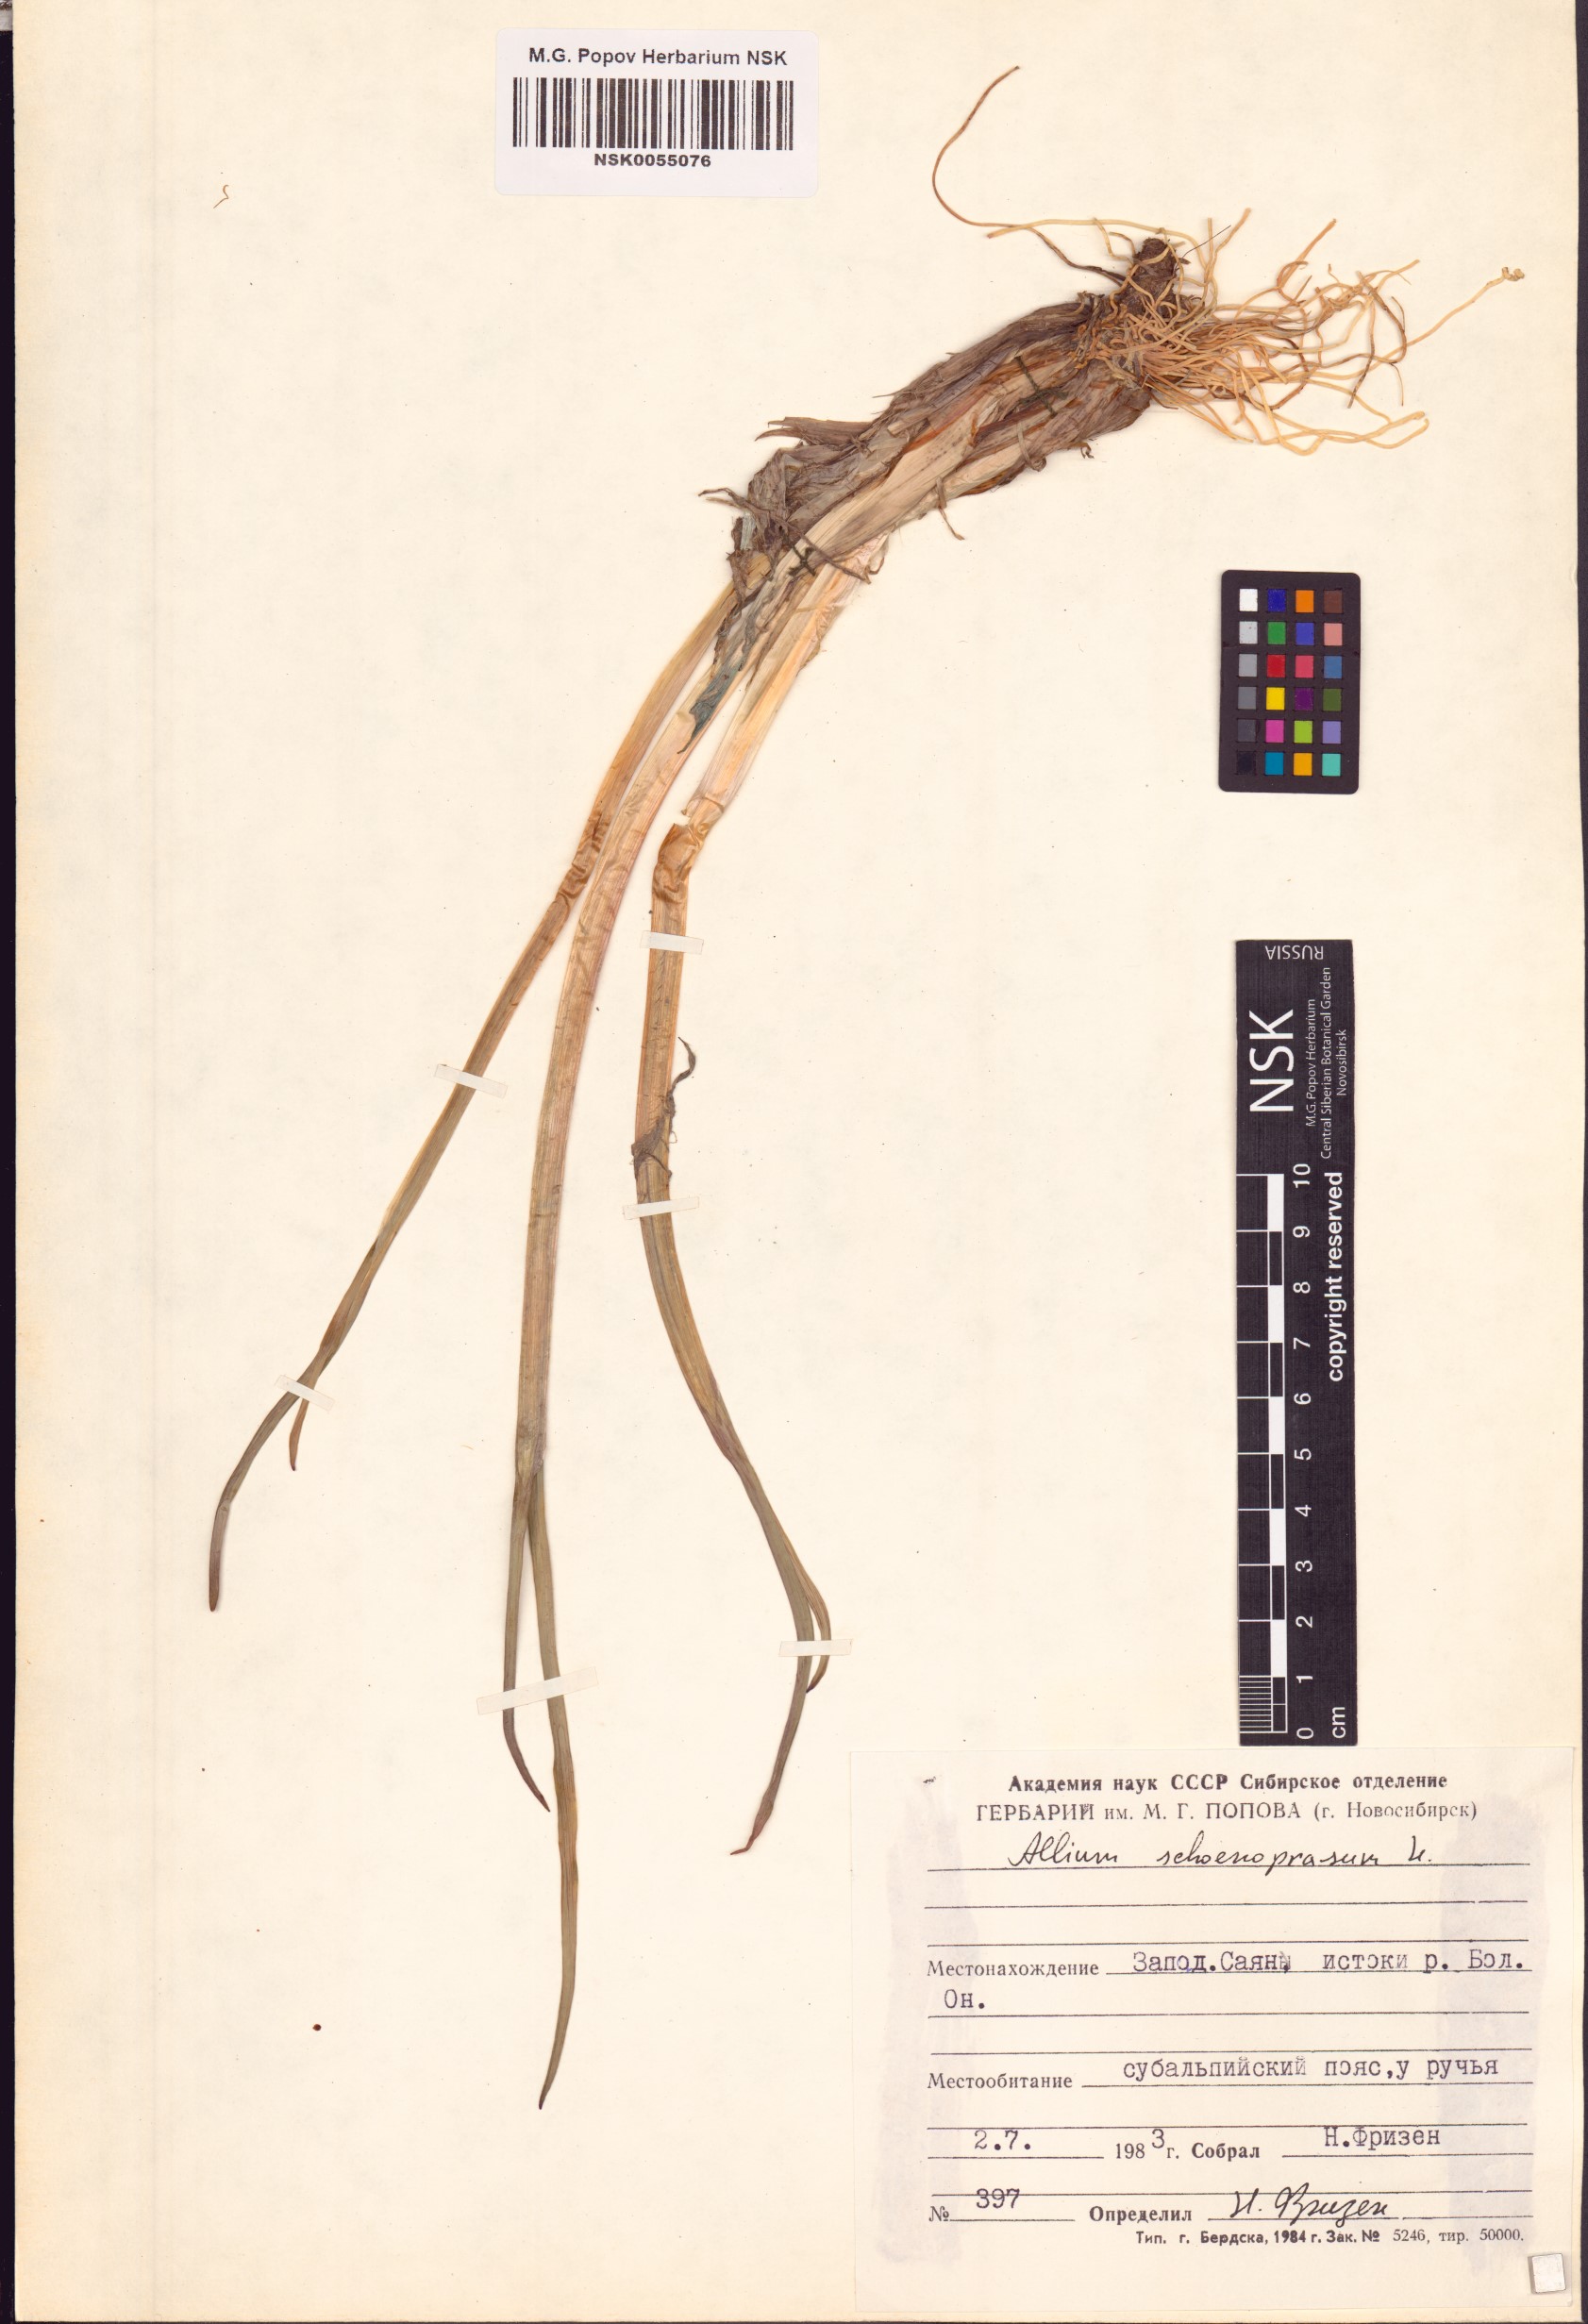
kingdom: Plantae
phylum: Tracheophyta
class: Liliopsida
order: Asparagales
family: Amaryllidaceae
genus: Allium
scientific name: Allium schoenoprasum
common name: Chives
